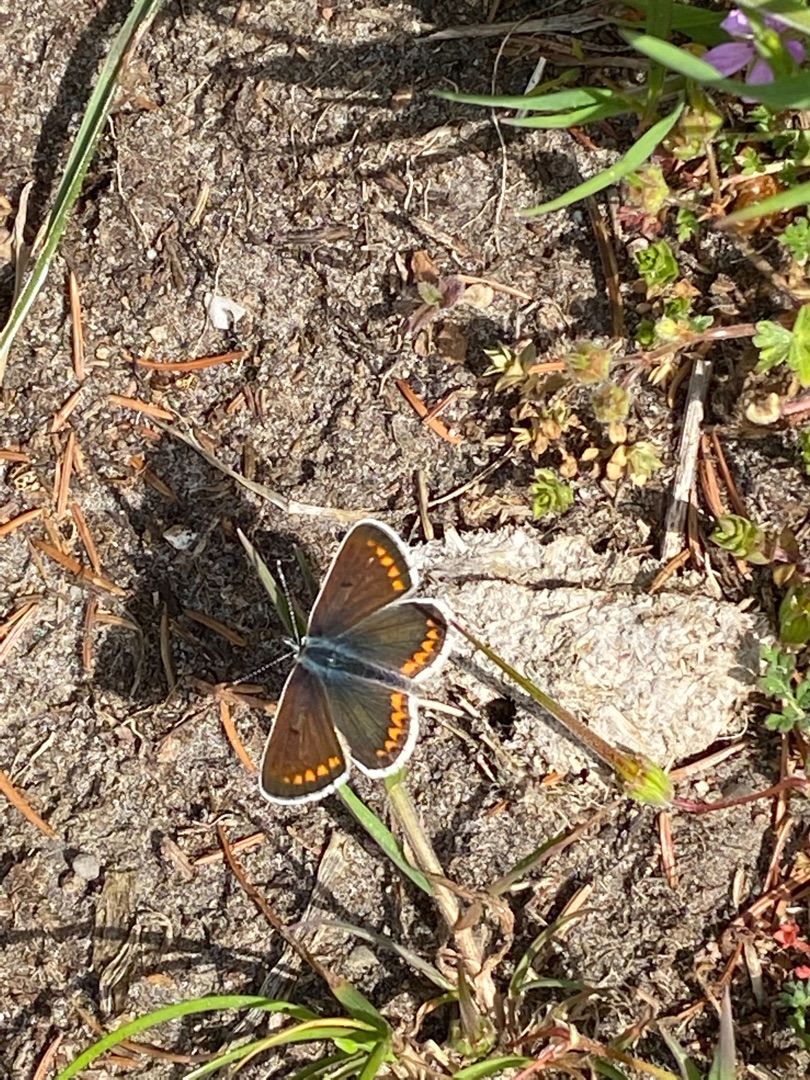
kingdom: Animalia
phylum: Arthropoda
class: Insecta
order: Lepidoptera
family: Lycaenidae
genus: Aricia
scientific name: Aricia agestis
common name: Rødplettet blåfugl
